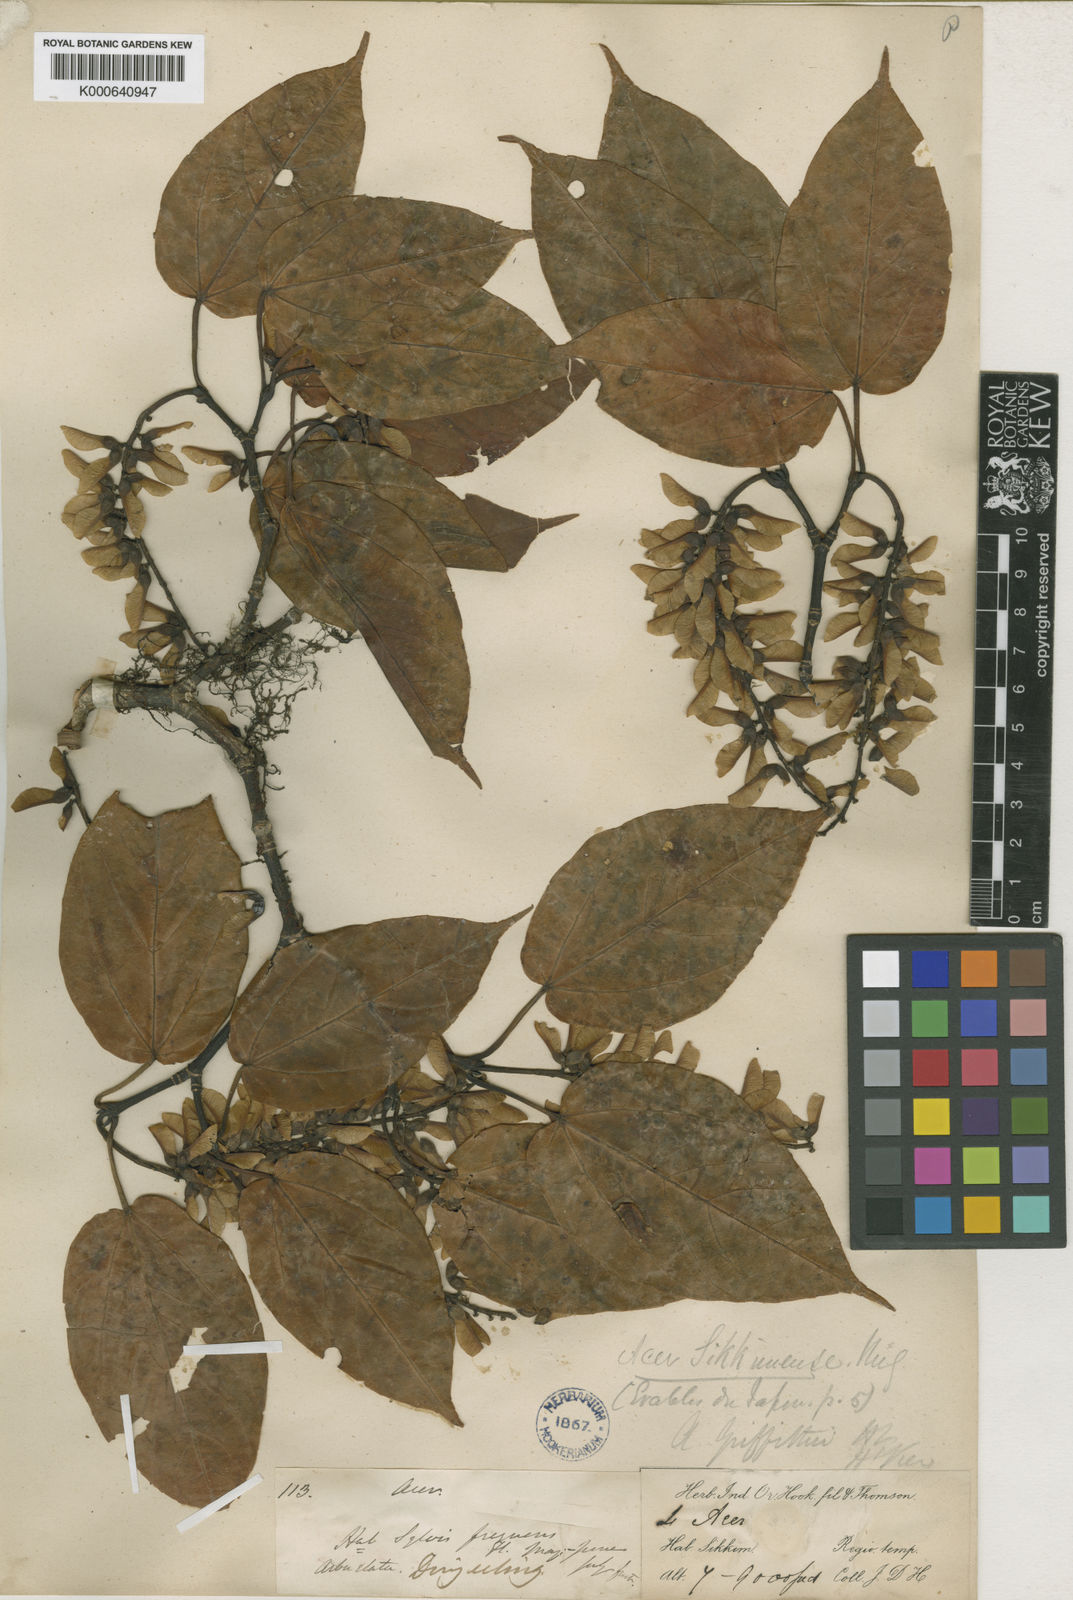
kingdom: Plantae
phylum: Tracheophyta
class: Magnoliopsida
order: Sapindales
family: Sapindaceae
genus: Acer
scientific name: Acer sikkimense
